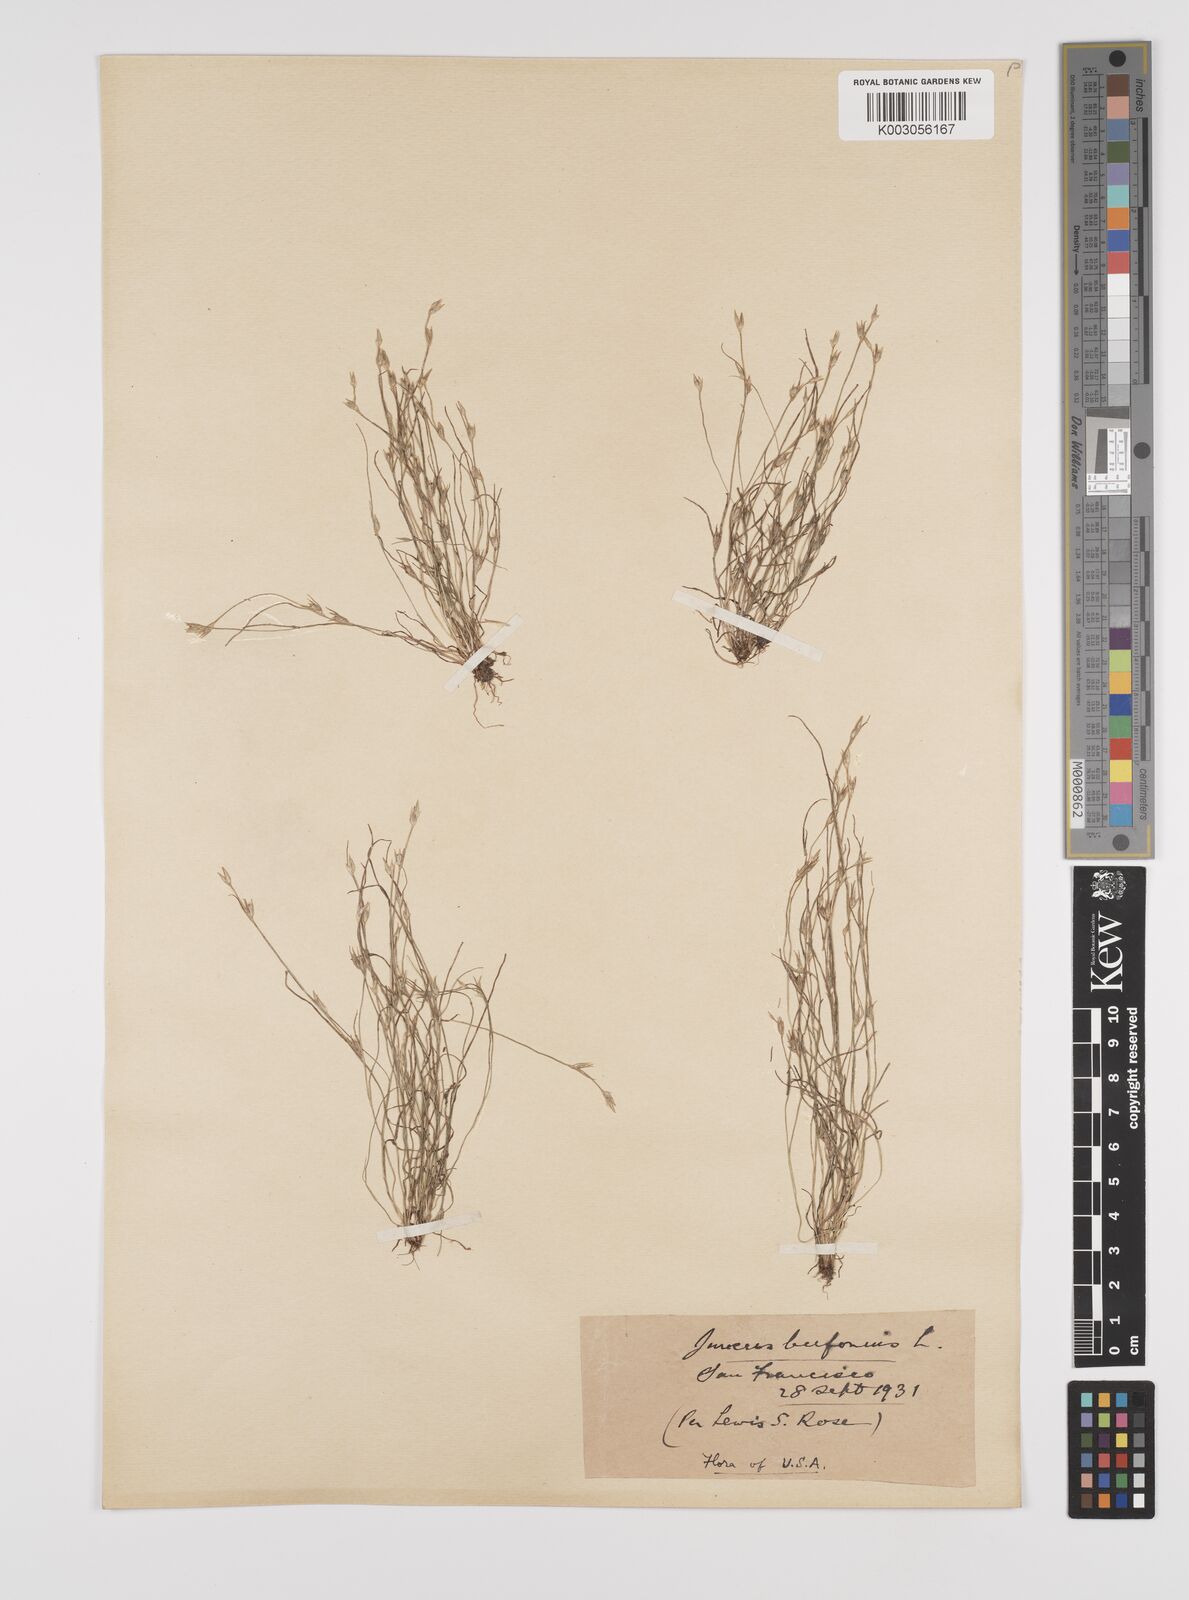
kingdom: Plantae
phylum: Tracheophyta
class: Liliopsida
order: Poales
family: Juncaceae
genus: Juncus
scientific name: Juncus bufonius
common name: Toad rush
